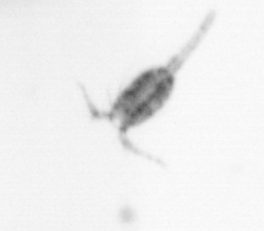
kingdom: Animalia
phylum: Arthropoda
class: Copepoda
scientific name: Copepoda
